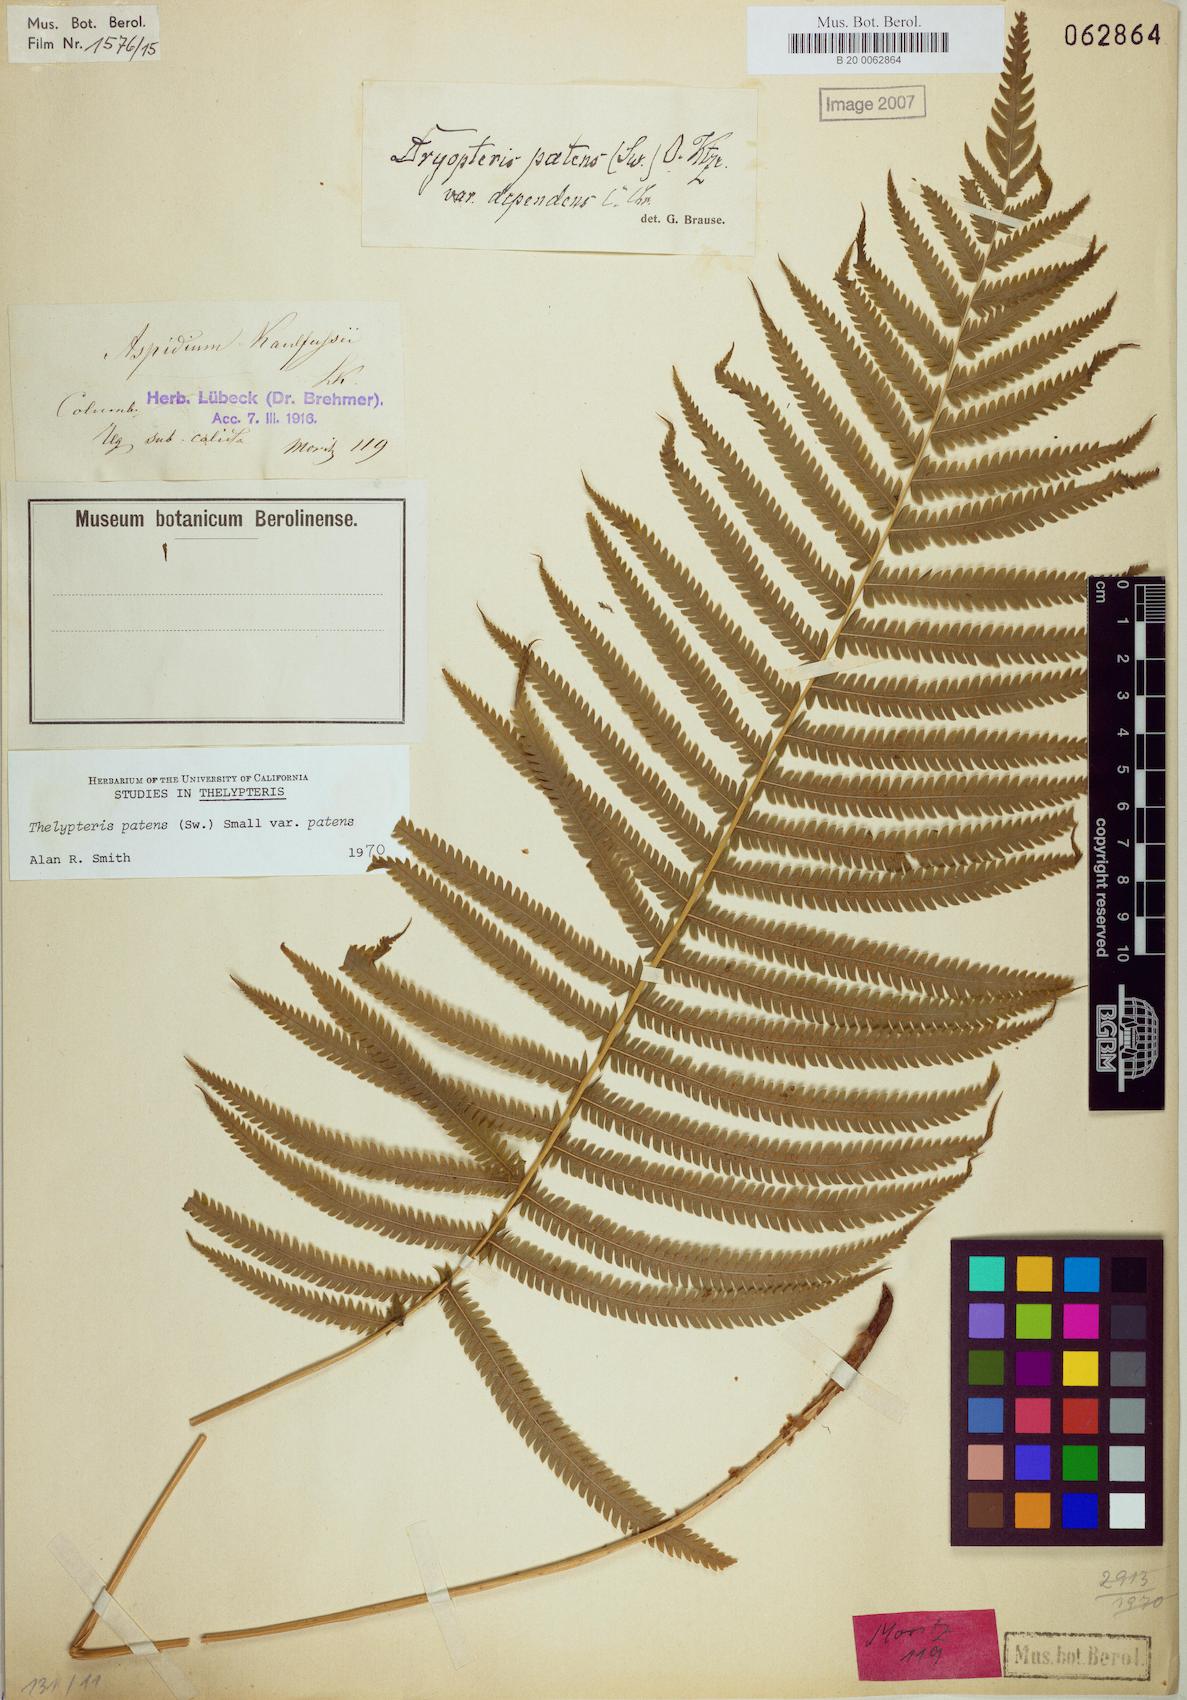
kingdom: Plantae
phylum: Tracheophyta
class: Polypodiopsida
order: Polypodiales
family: Thelypteridaceae
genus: Pelazoneuron
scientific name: Pelazoneuron patens
